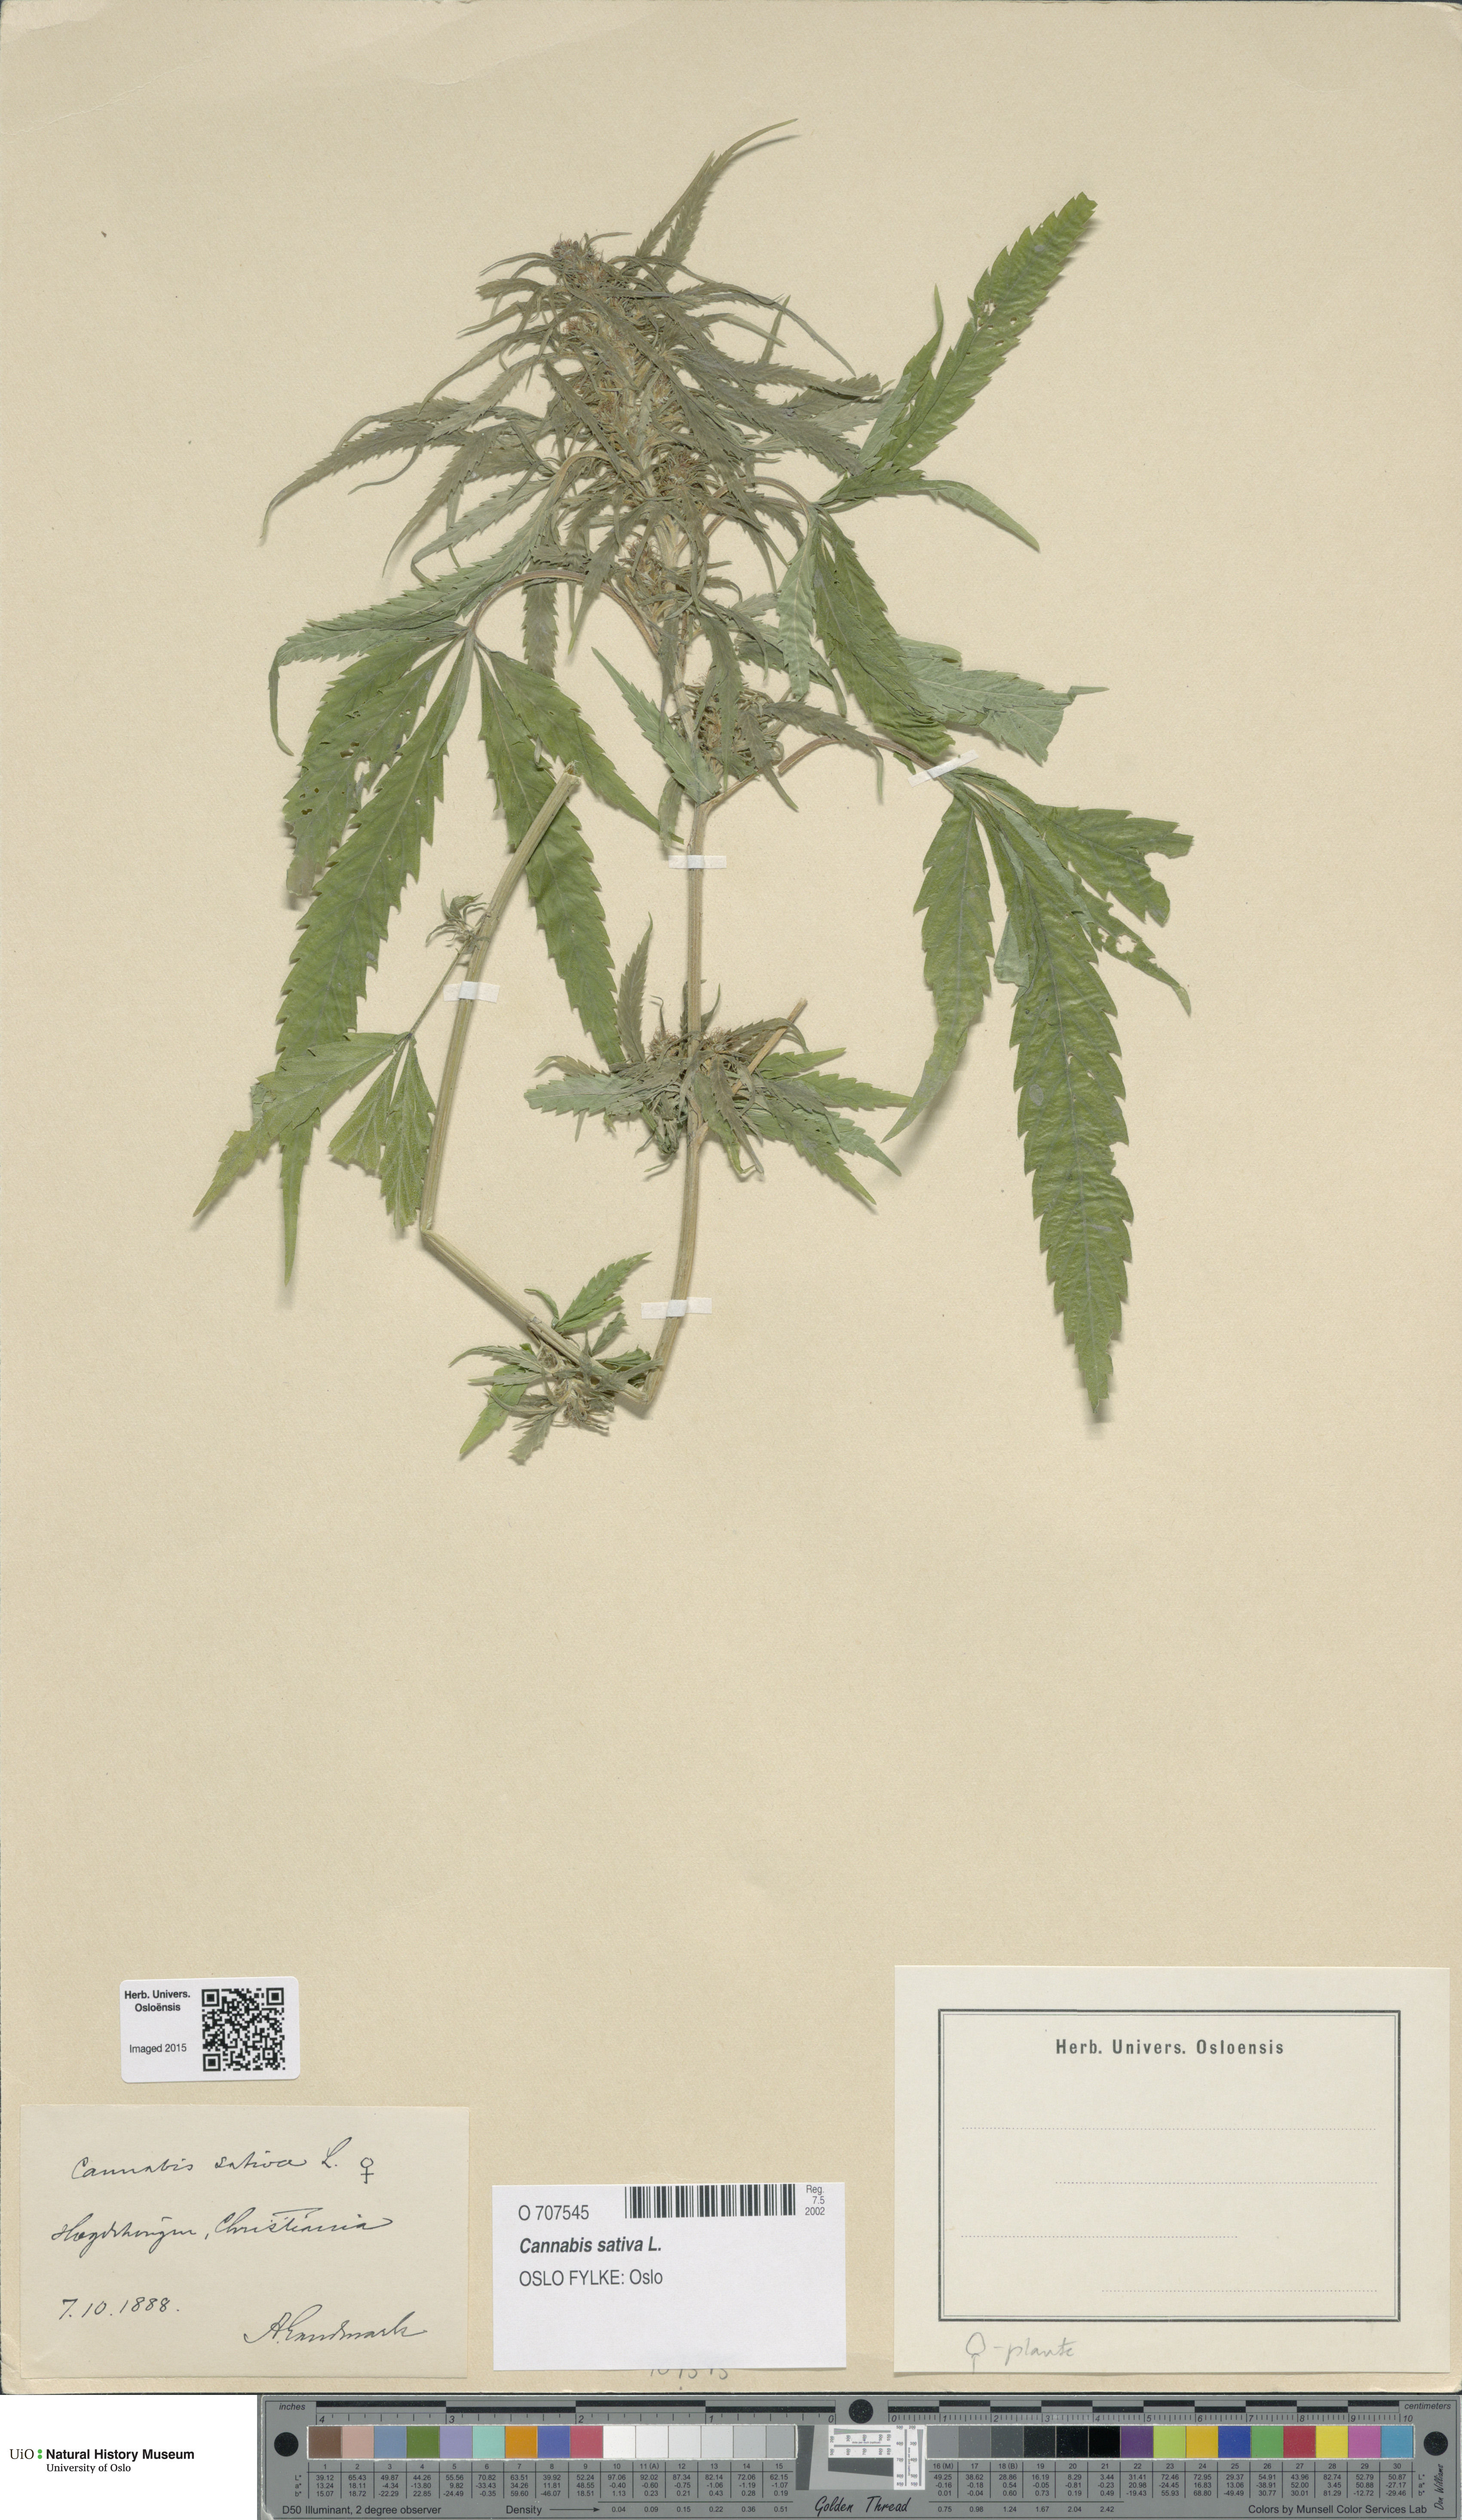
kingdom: Plantae
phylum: Tracheophyta
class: Magnoliopsida
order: Rosales
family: Cannabaceae
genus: Cannabis
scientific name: Cannabis sativa
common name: Hemp
